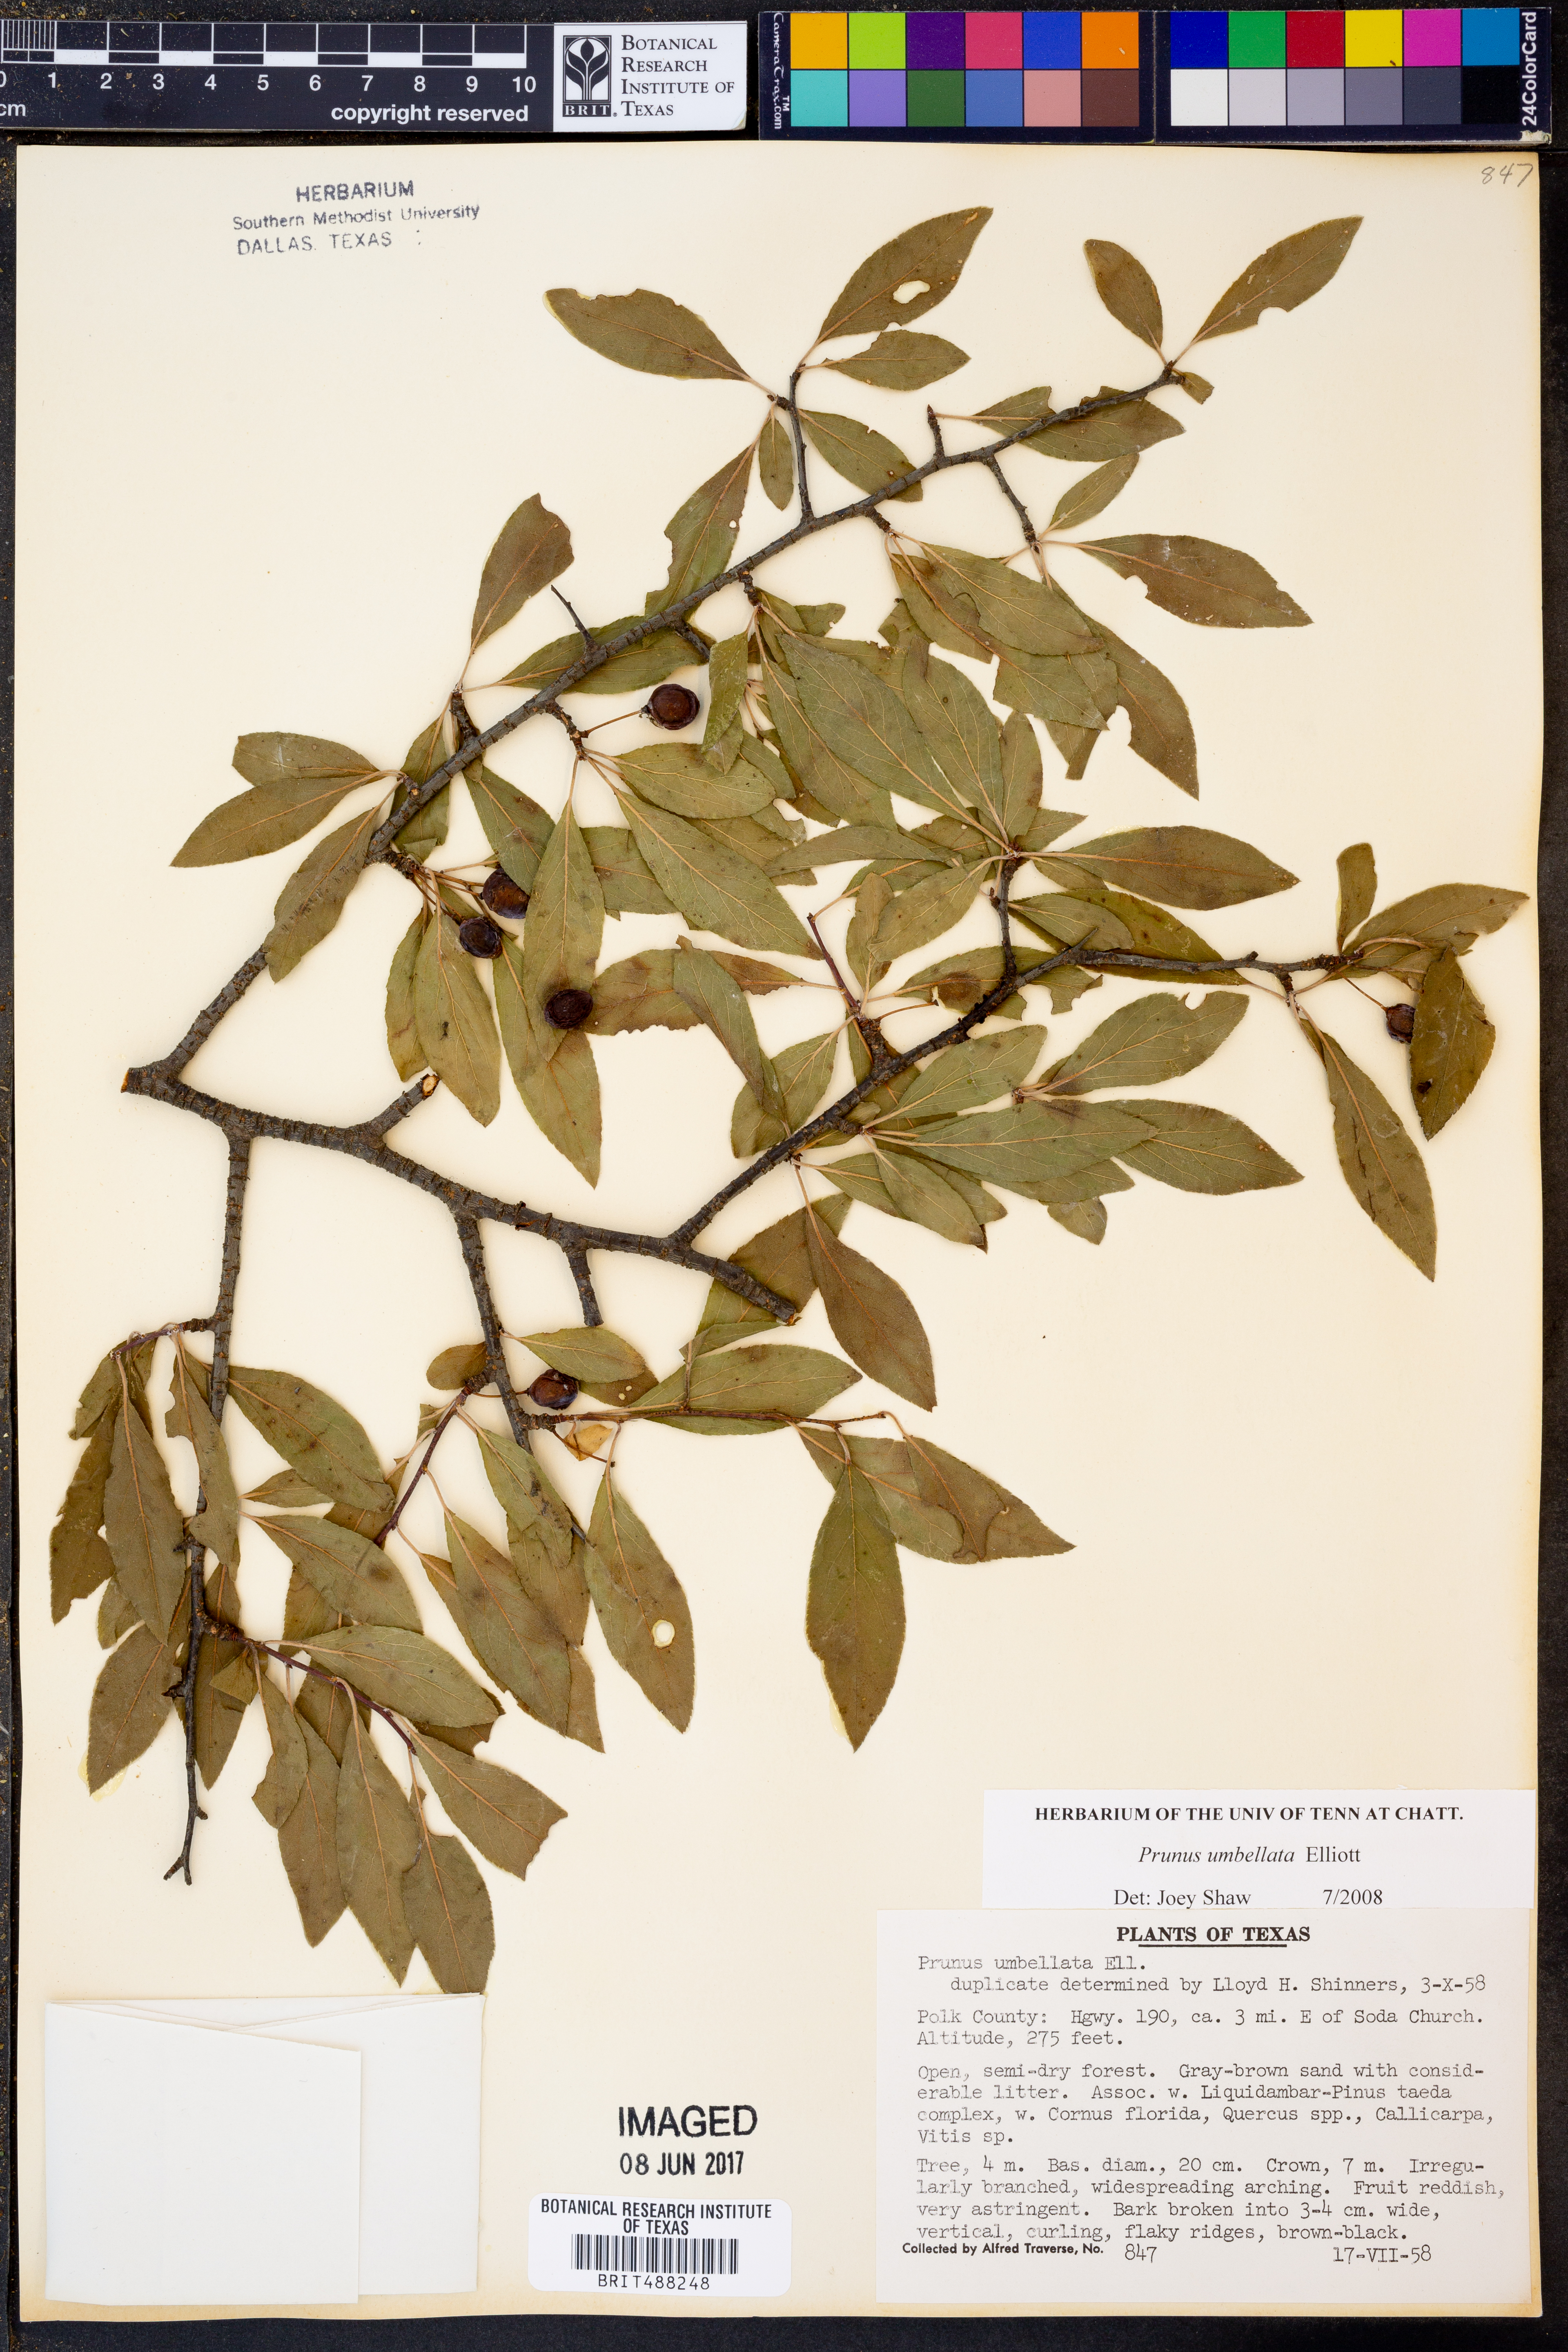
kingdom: Plantae
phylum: Tracheophyta
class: Magnoliopsida
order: Rosales
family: Rosaceae
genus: Prunus
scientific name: Prunus umbellata
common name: Allegheny plum
